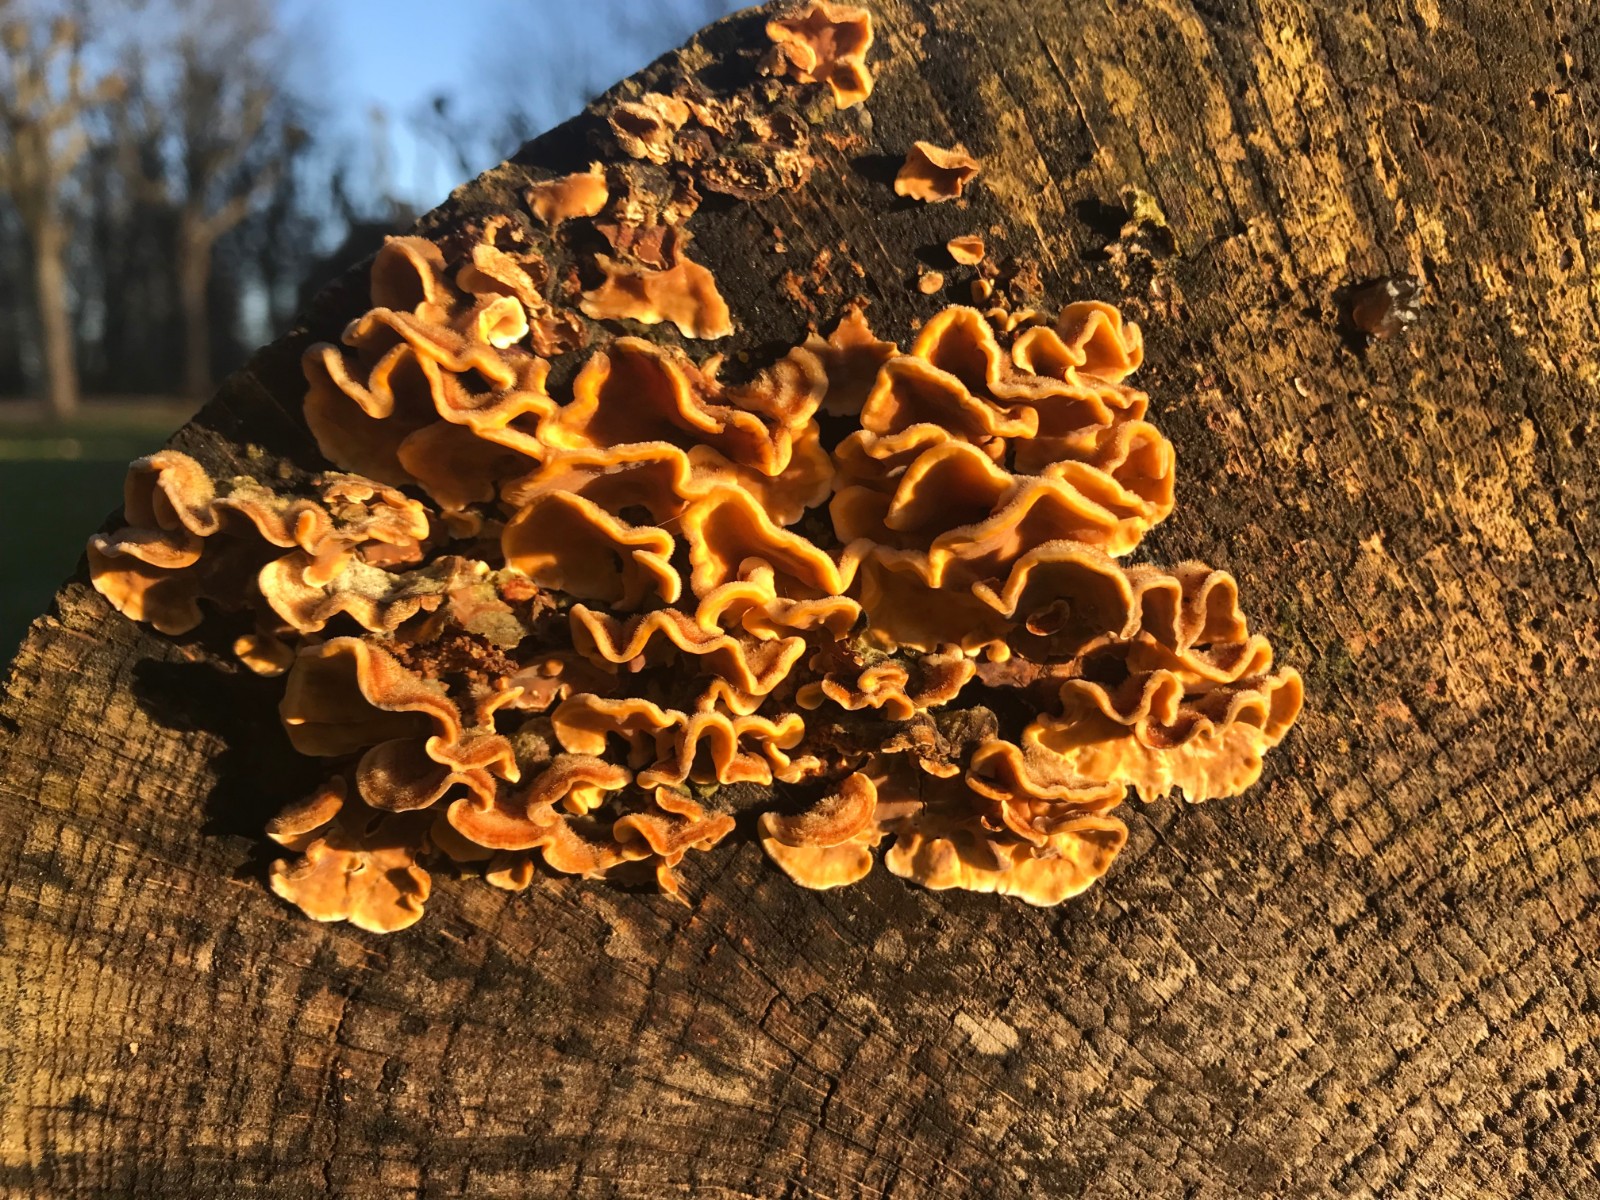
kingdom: Fungi
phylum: Basidiomycota
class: Agaricomycetes
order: Russulales
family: Stereaceae
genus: Stereum
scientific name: Stereum hirsutum
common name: håret lædersvamp
